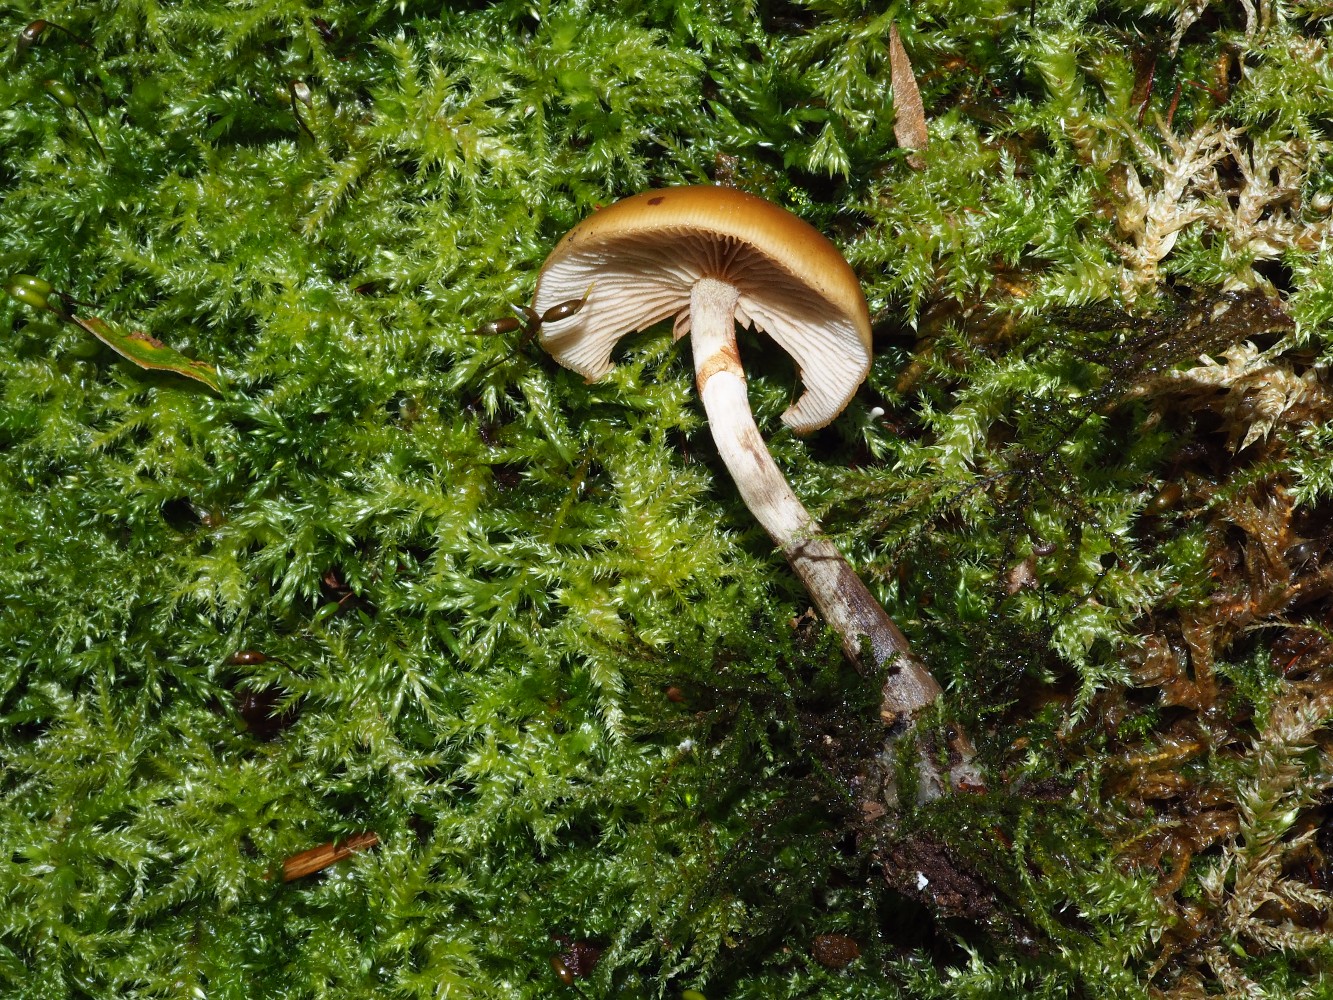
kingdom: Fungi
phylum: Basidiomycota
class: Agaricomycetes
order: Agaricales
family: Hymenogastraceae
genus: Galerina
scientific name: Galerina marginata
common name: randbæltet hjelmhat
